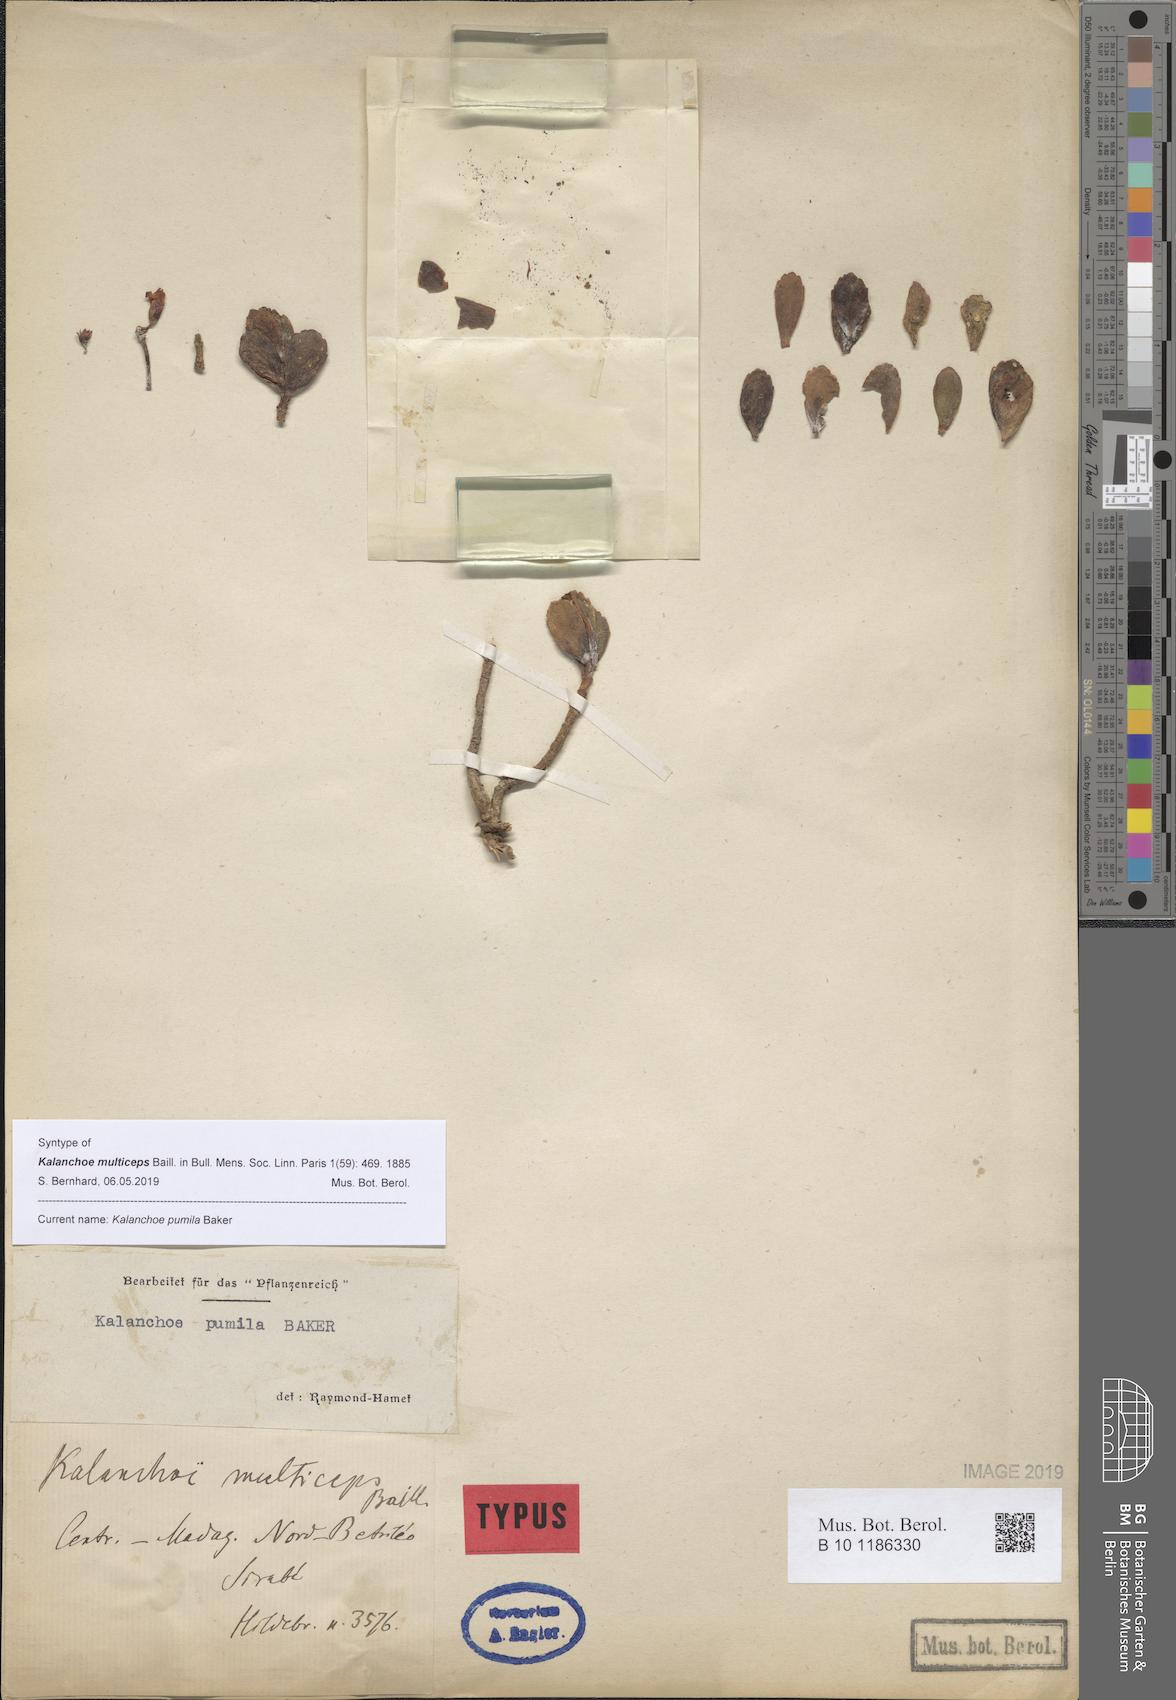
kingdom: Plantae
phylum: Tracheophyta
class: Magnoliopsida
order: Saxifragales
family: Crassulaceae
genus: Kalanchoe
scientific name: Kalanchoe pumila
